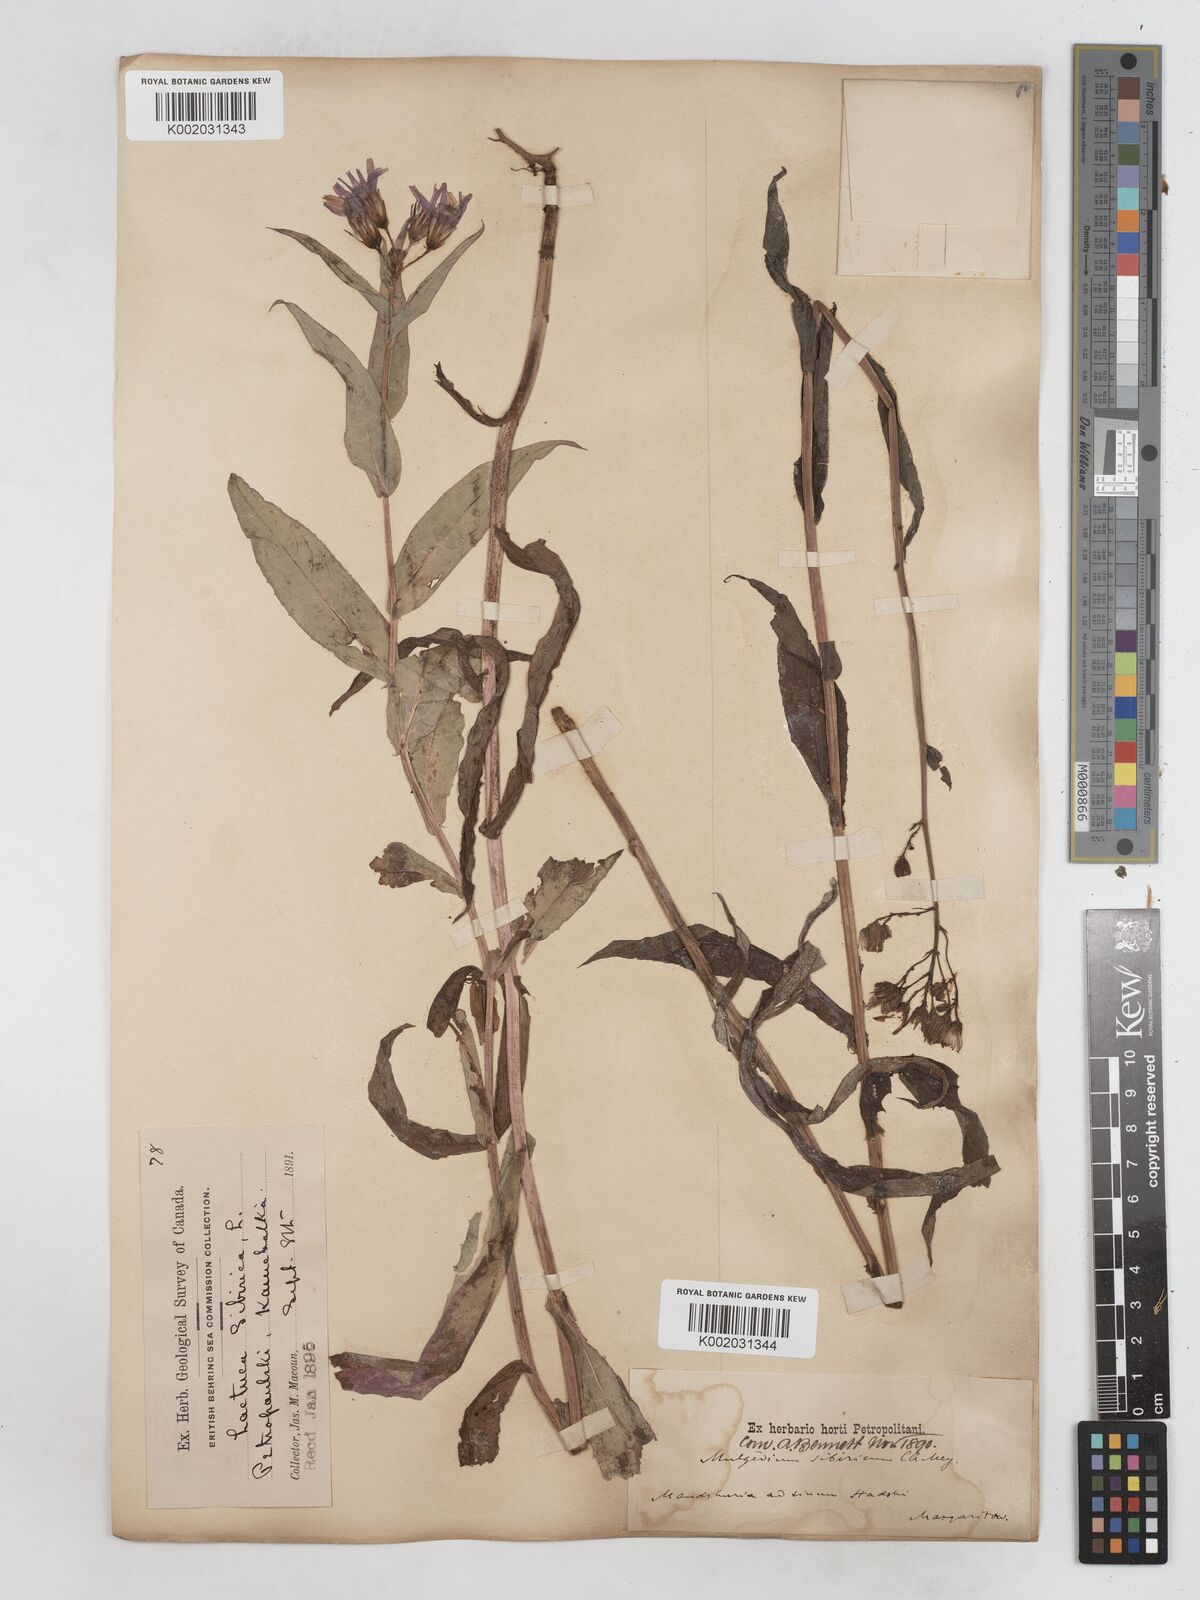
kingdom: Plantae
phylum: Tracheophyta
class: Magnoliopsida
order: Asterales
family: Asteraceae
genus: Lactuca
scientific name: Lactuca sibirica
